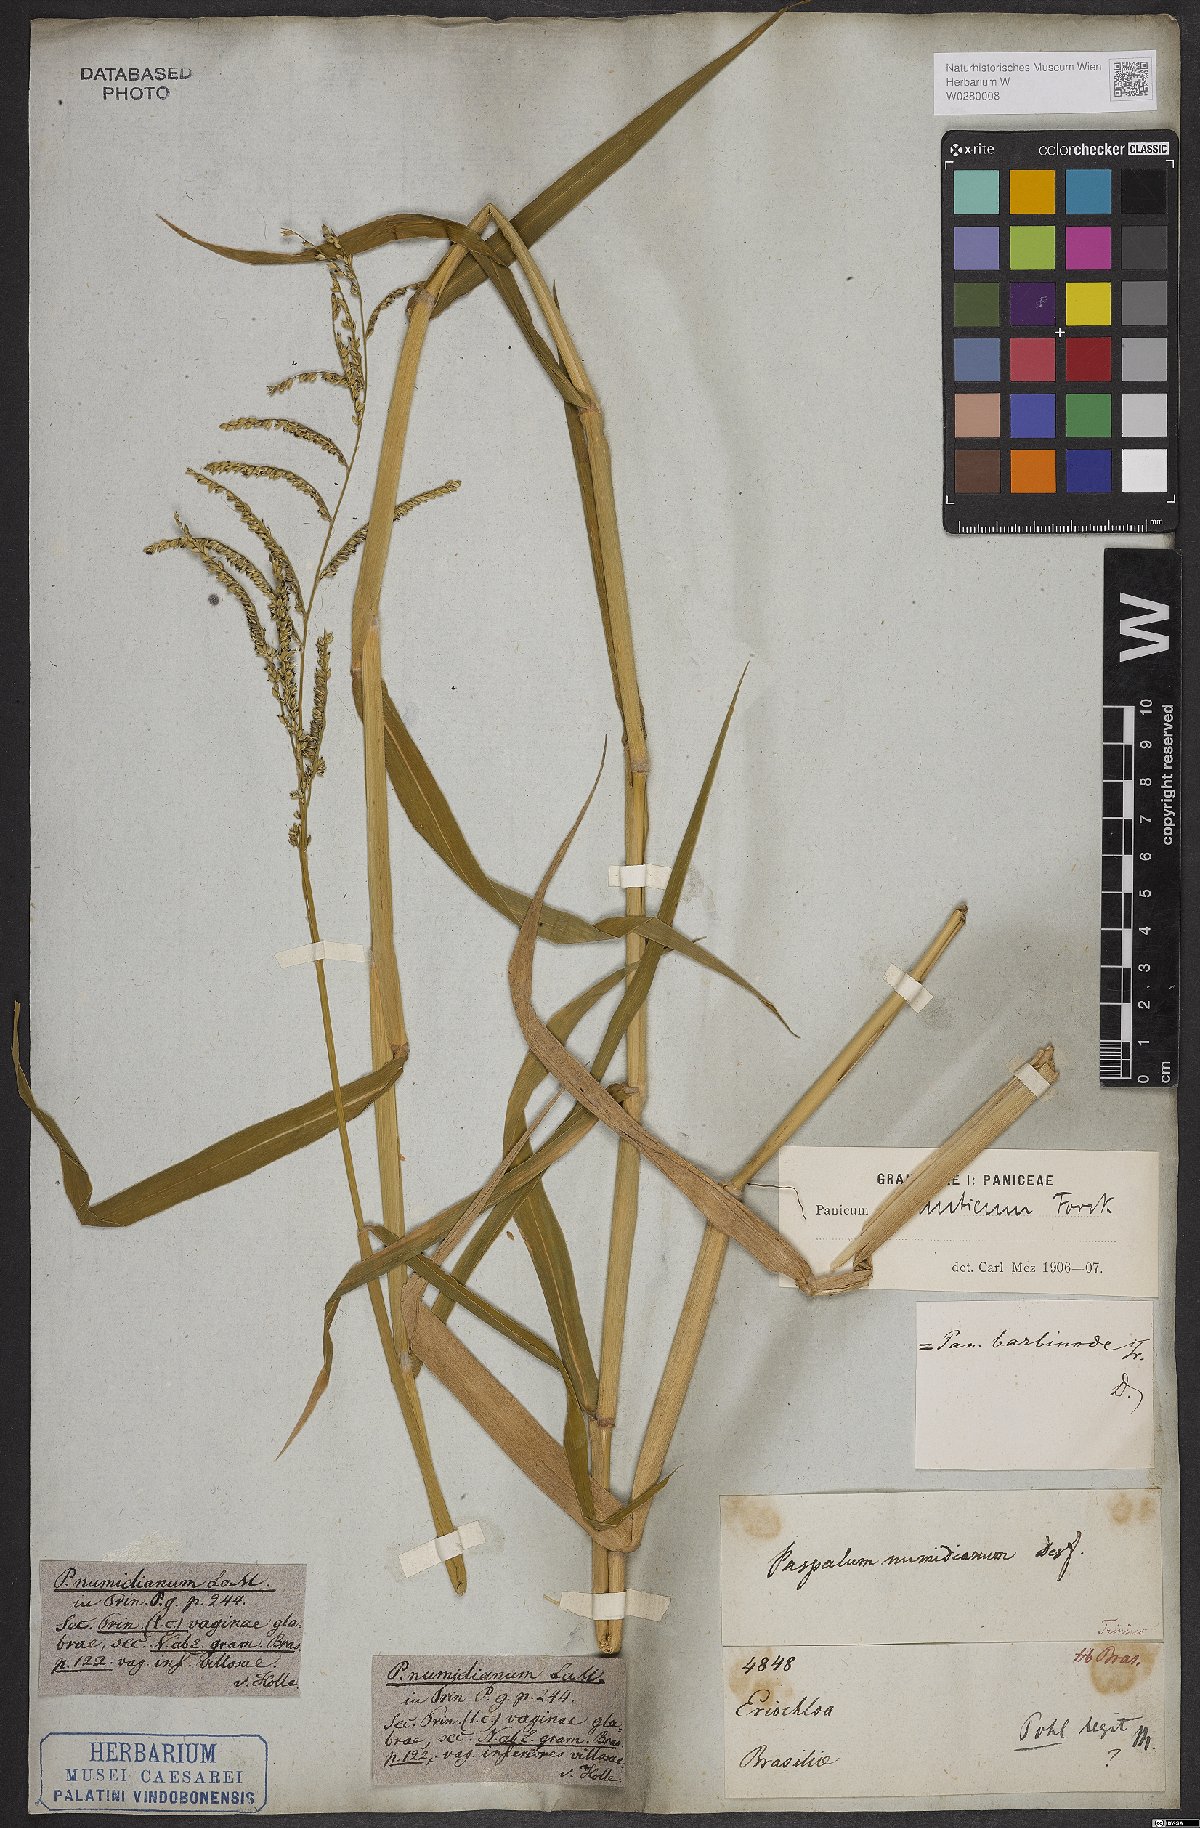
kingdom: Plantae
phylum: Tracheophyta
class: Liliopsida
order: Poales
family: Poaceae
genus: Urochloa
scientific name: Urochloa mutica
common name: Para grass
